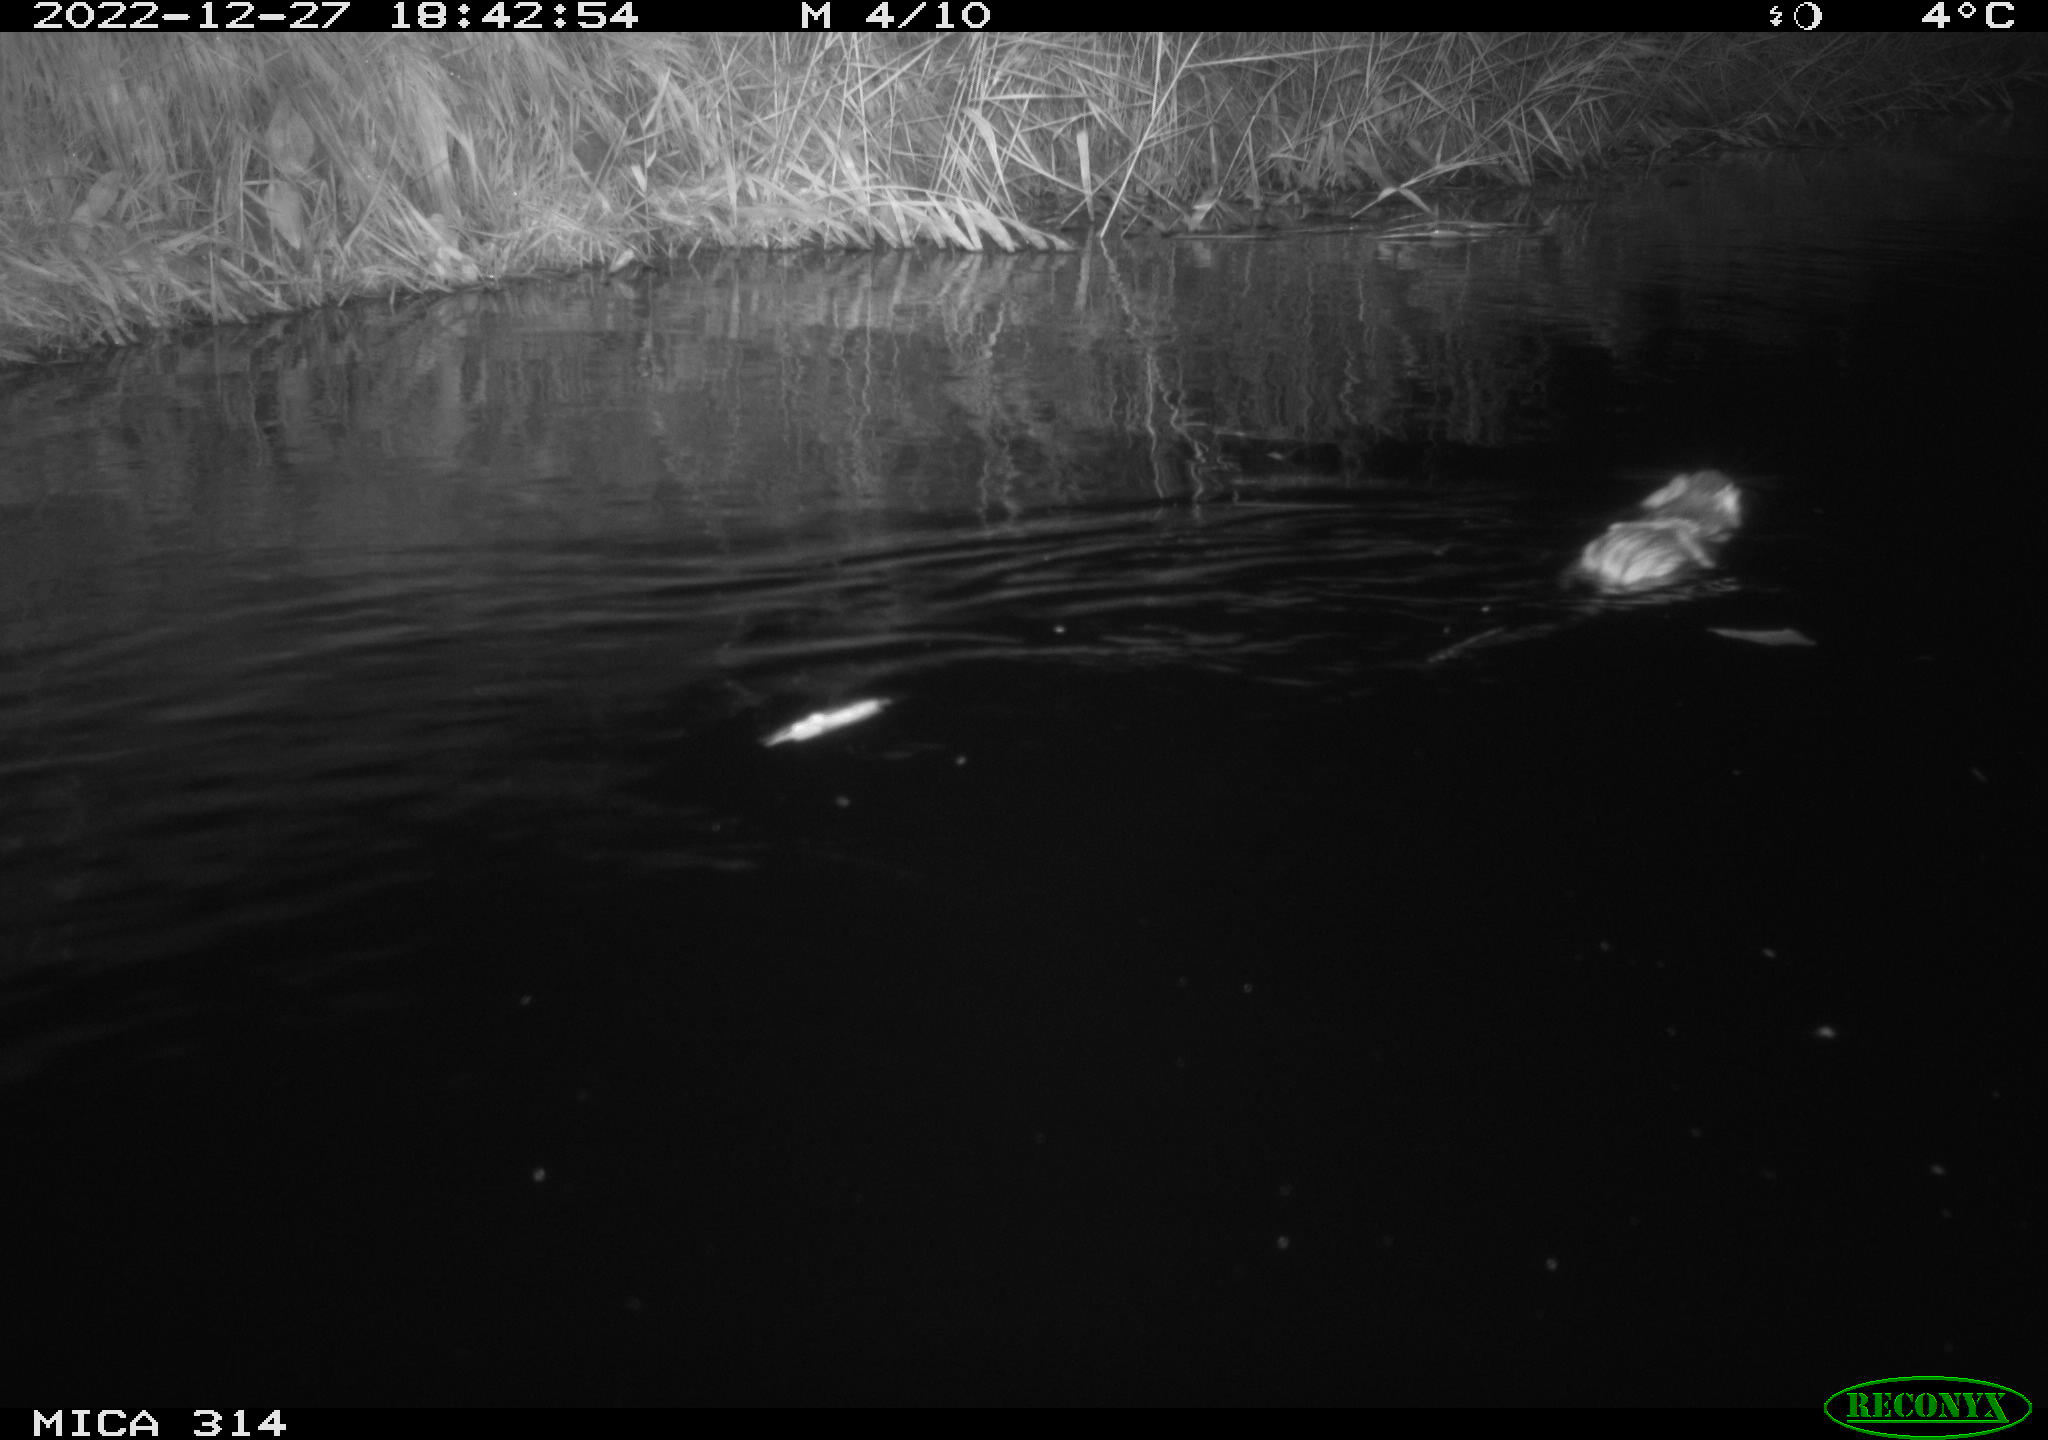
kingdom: Animalia
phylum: Chordata
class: Mammalia
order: Rodentia
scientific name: Rodentia
